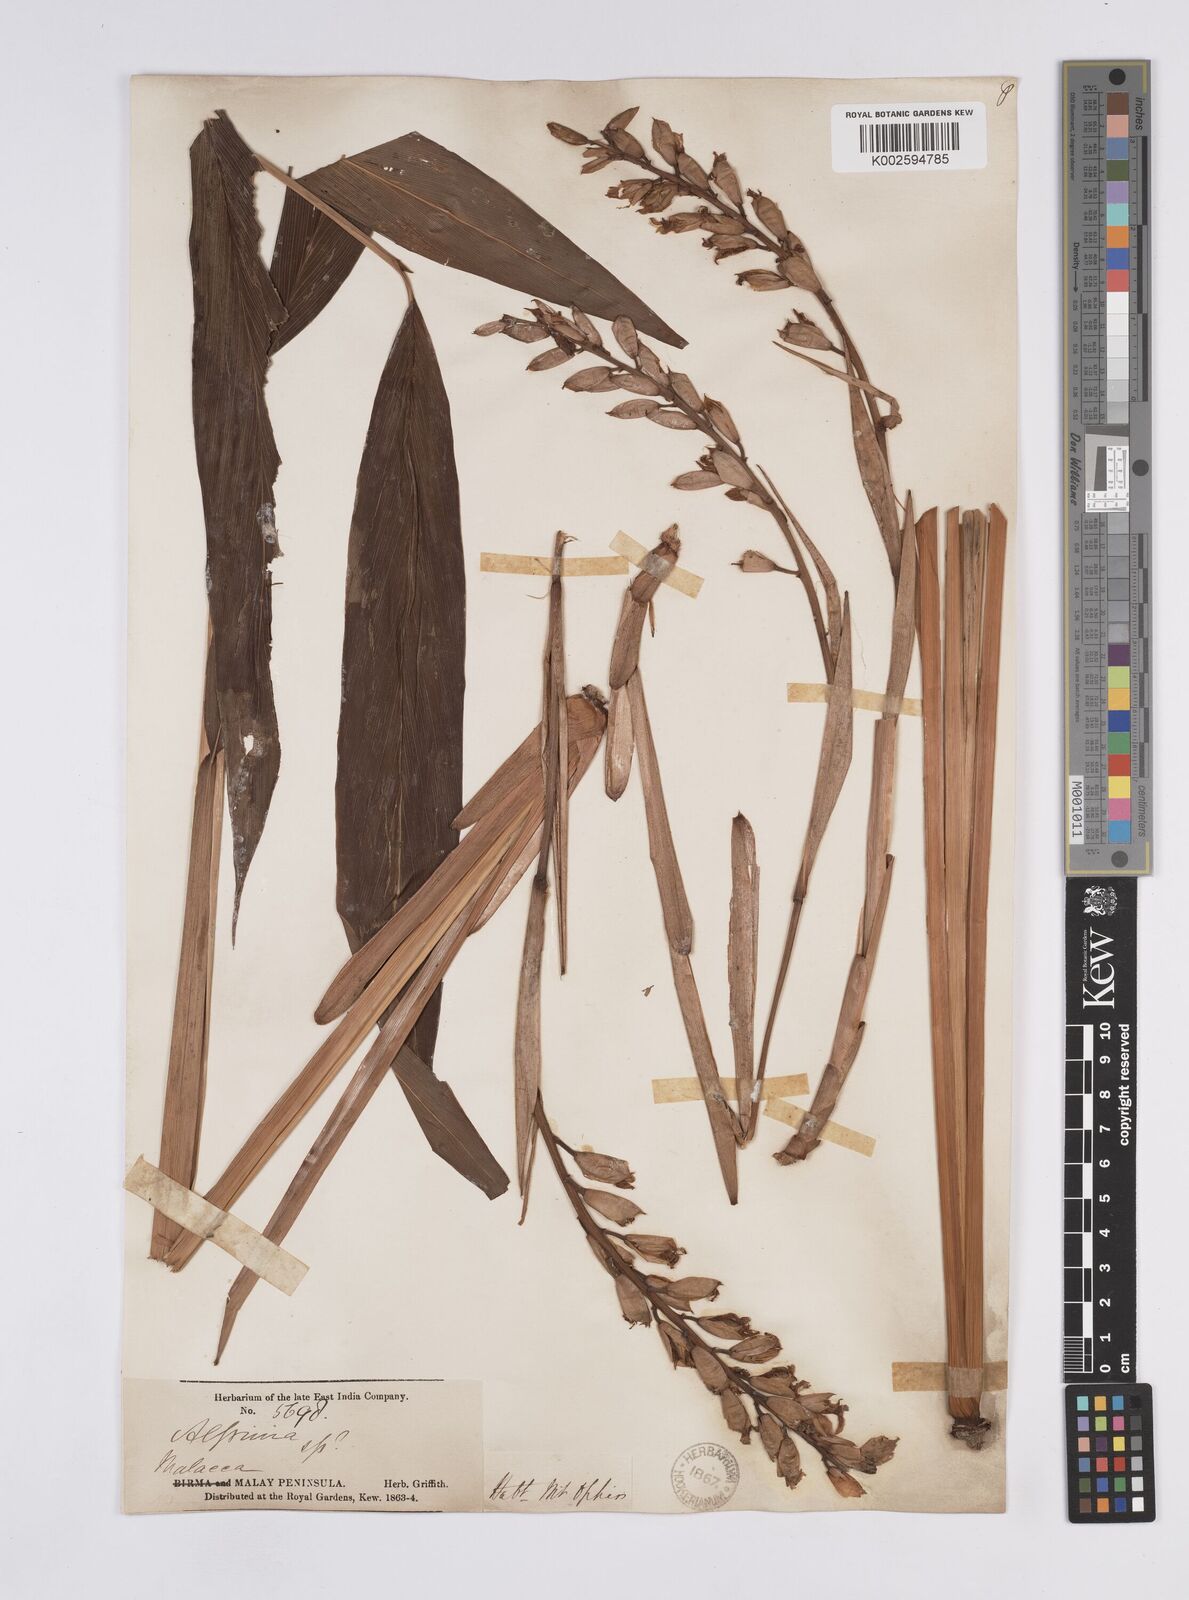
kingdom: Plantae
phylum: Tracheophyta
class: Liliopsida
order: Zingiberales
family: Zingiberaceae
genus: Geostachys
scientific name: Geostachys elegans
